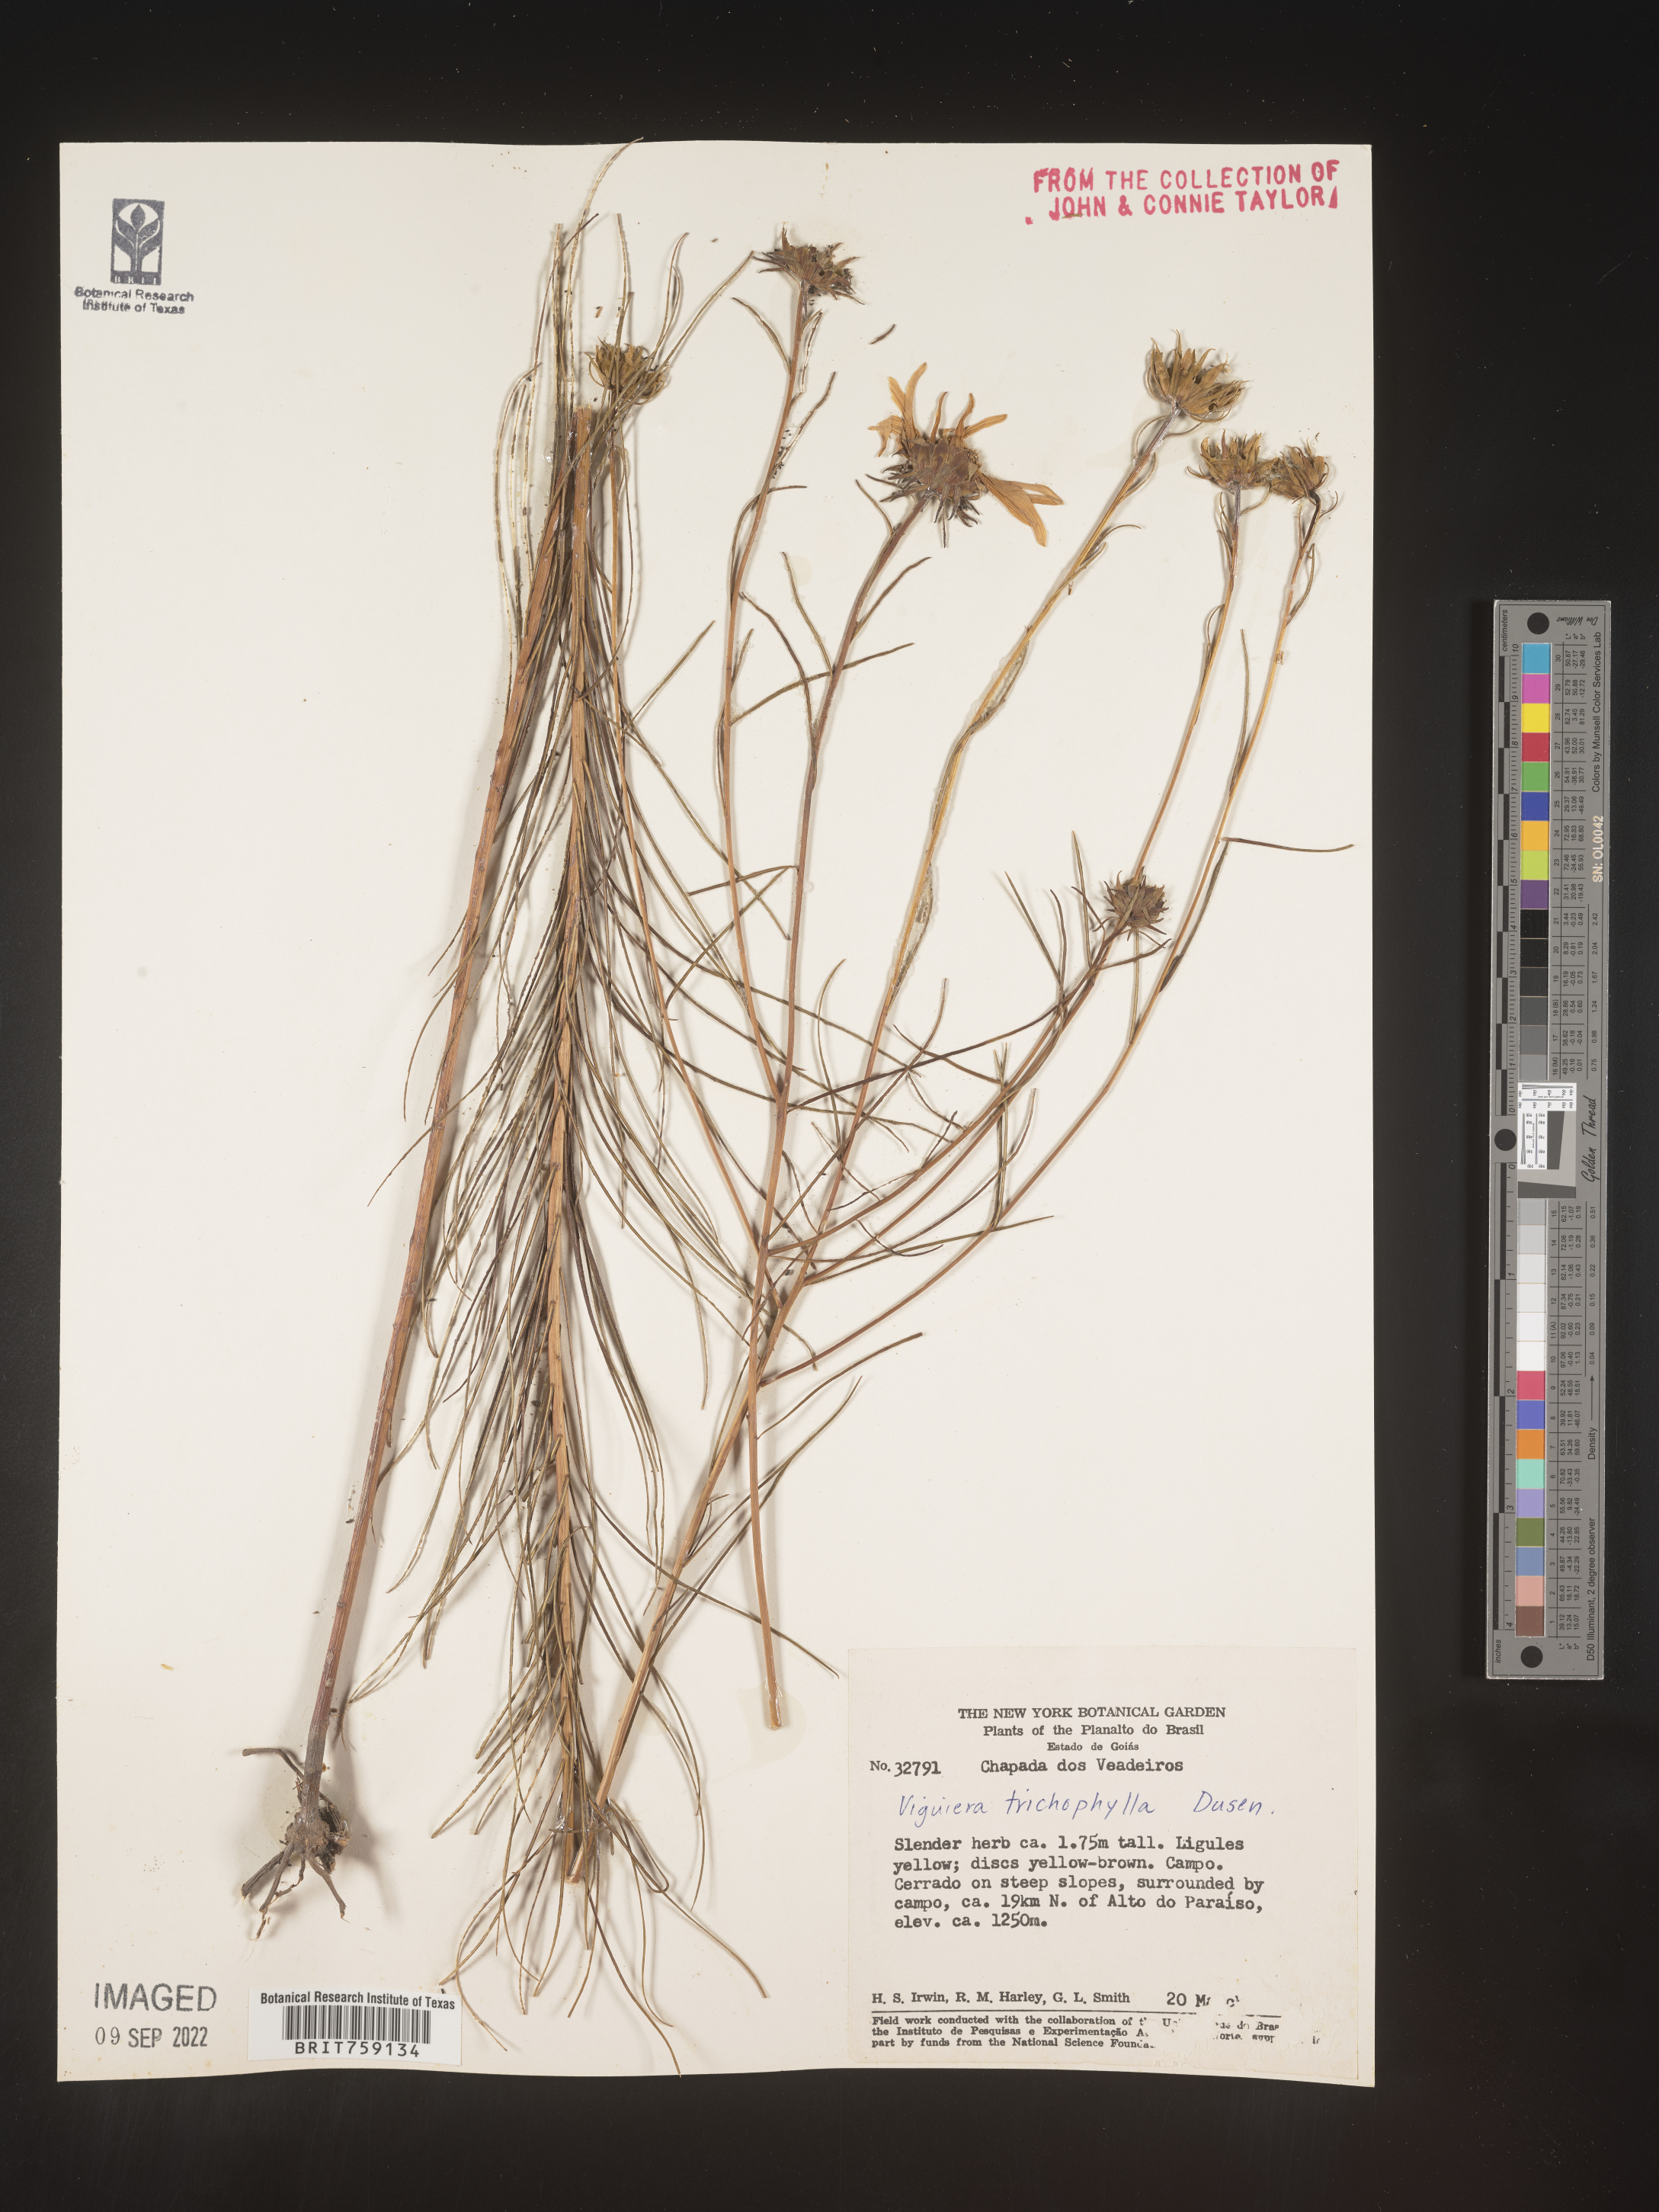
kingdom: Plantae
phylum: Tracheophyta
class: Magnoliopsida
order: Asterales
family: Asteraceae
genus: Viguiera
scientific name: Viguiera
